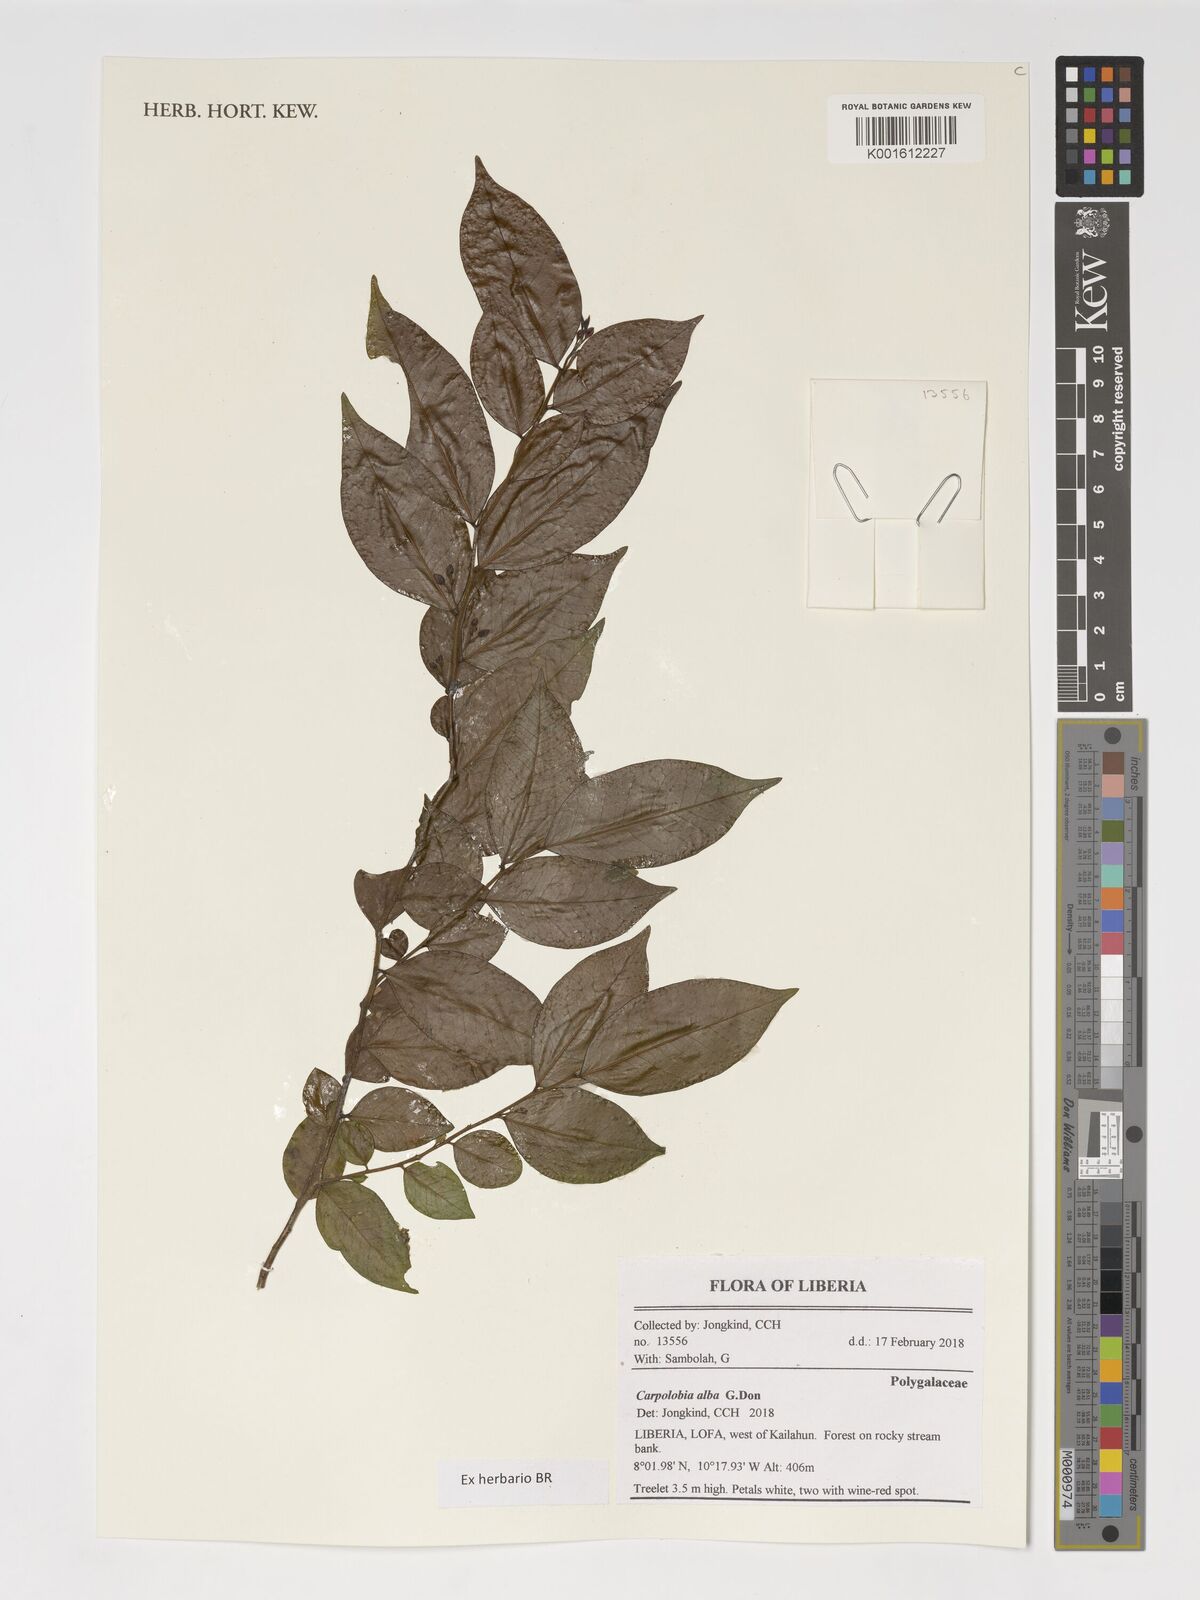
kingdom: Plantae
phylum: Tracheophyta
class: Magnoliopsida
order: Fabales
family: Polygalaceae
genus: Carpolobia
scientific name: Carpolobia alba
